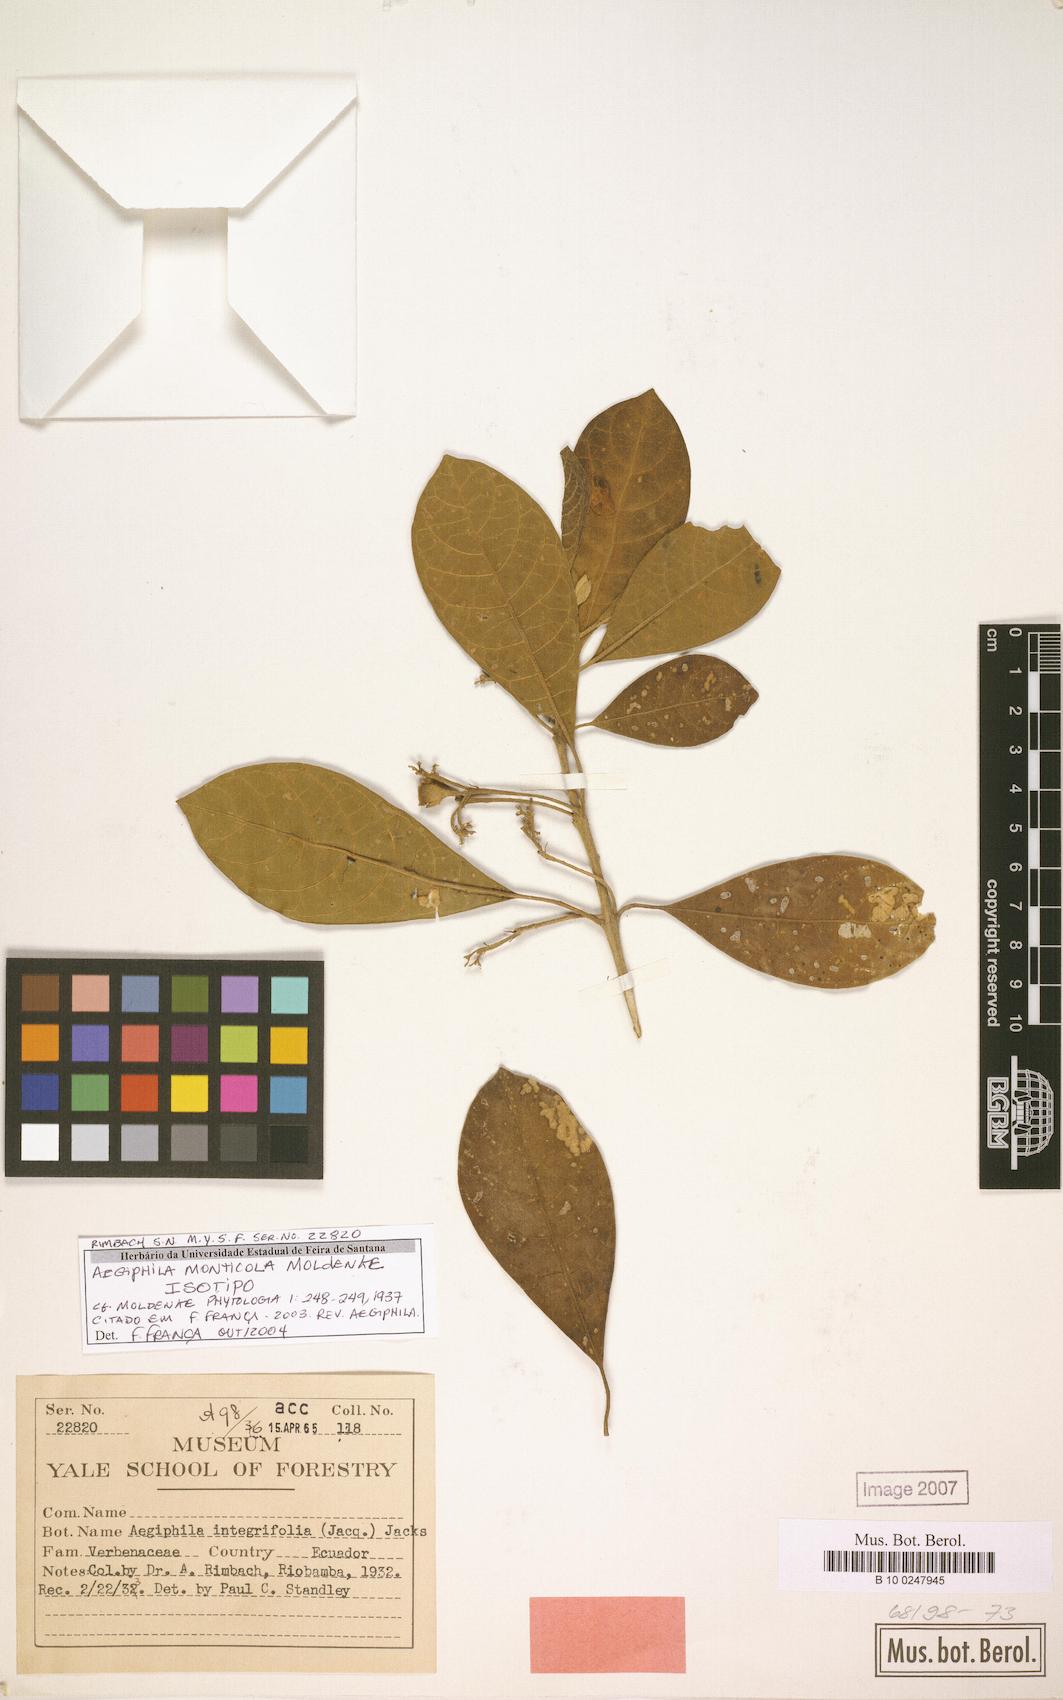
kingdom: Plantae
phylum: Tracheophyta
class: Magnoliopsida
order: Lamiales
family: Lamiaceae
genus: Aegiphila
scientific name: Aegiphila monticola
